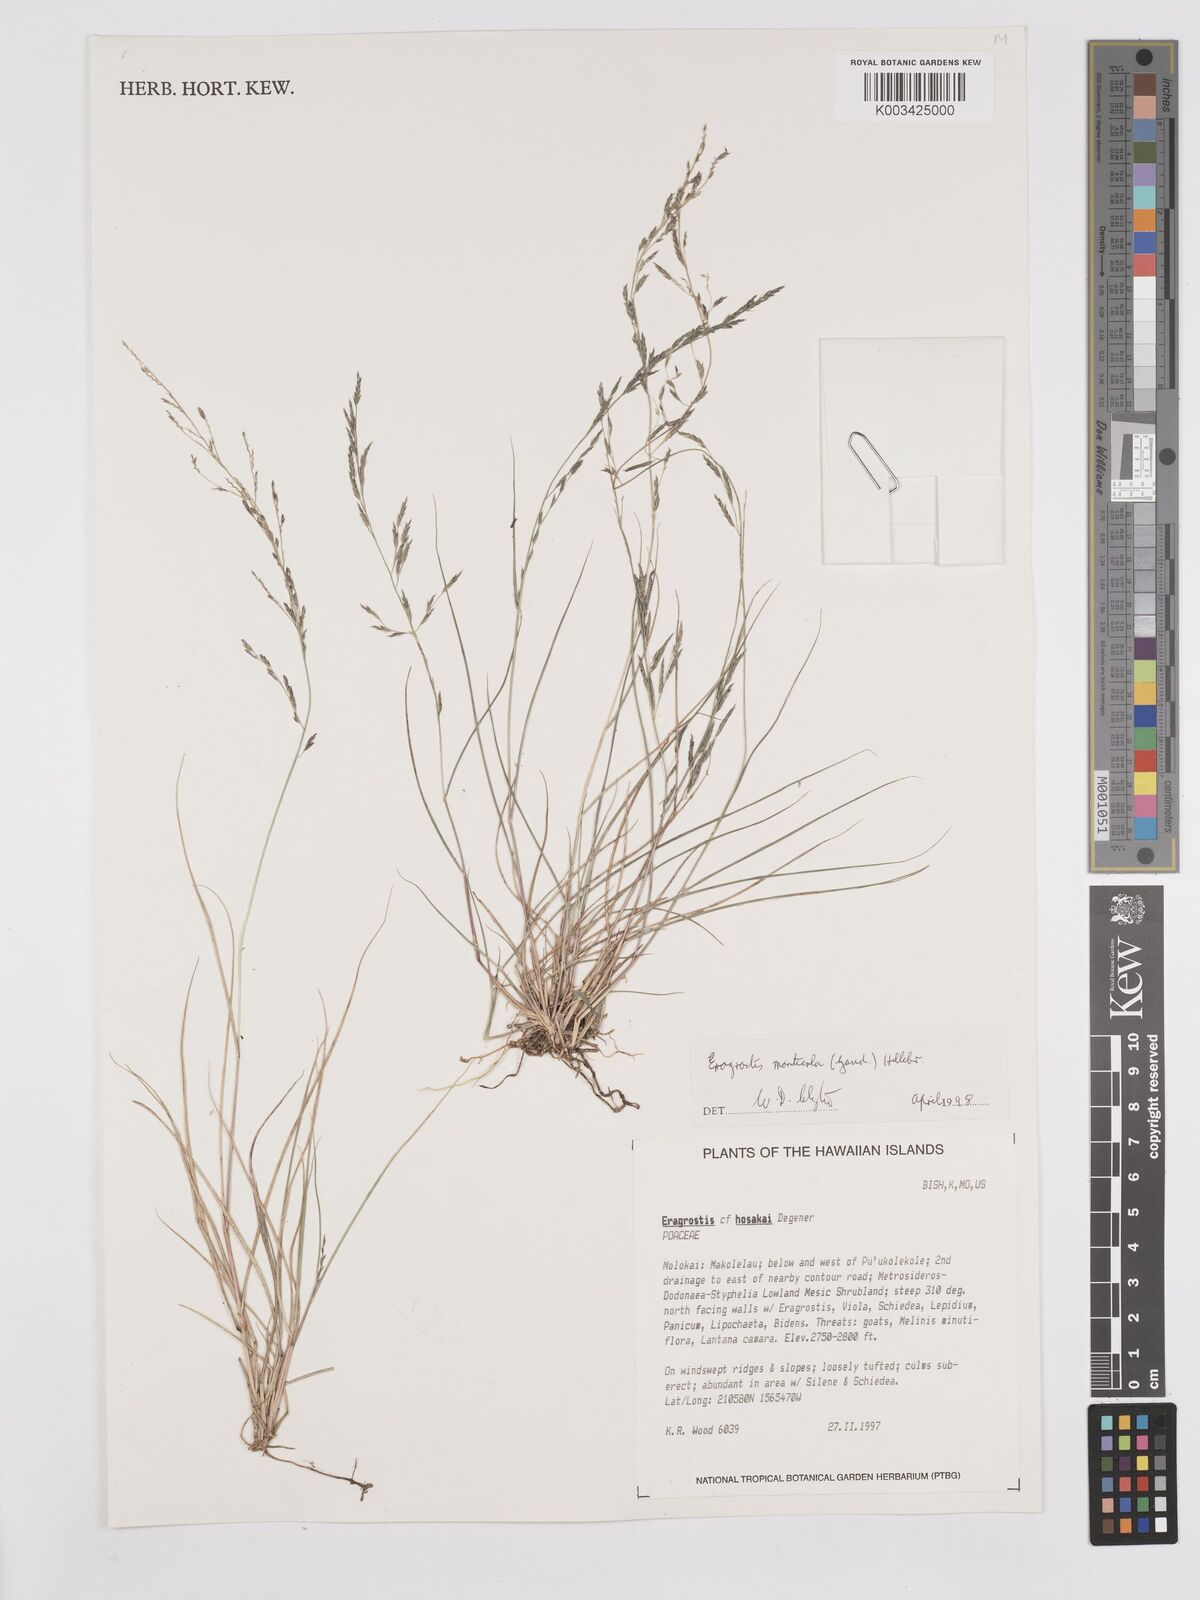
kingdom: Plantae
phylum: Tracheophyta
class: Liliopsida
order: Poales
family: Poaceae
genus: Eragrostis
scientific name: Eragrostis monticola
